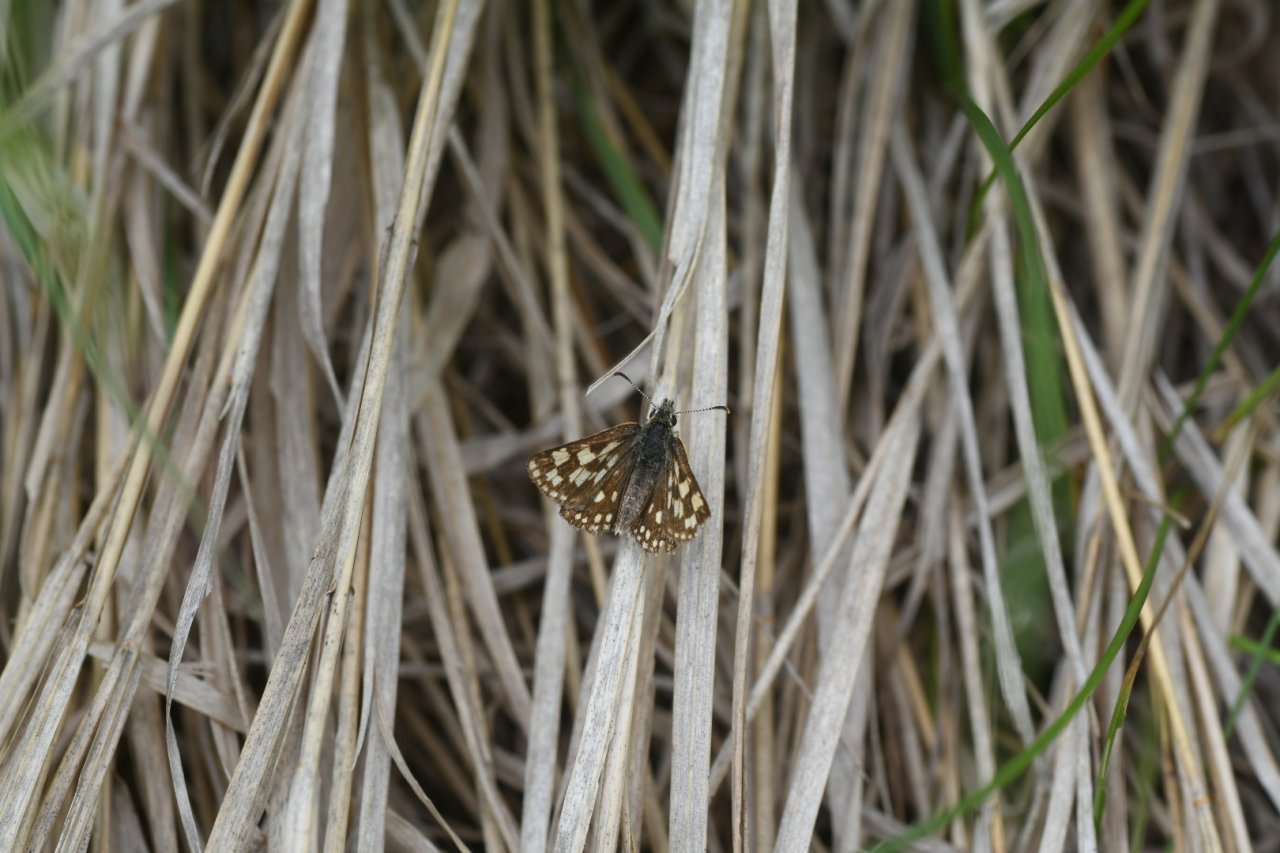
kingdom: Animalia
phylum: Arthropoda
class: Insecta
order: Lepidoptera
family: Hesperiidae
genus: Carterocephalus
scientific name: Carterocephalus palaemon
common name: Chequered Skipper
